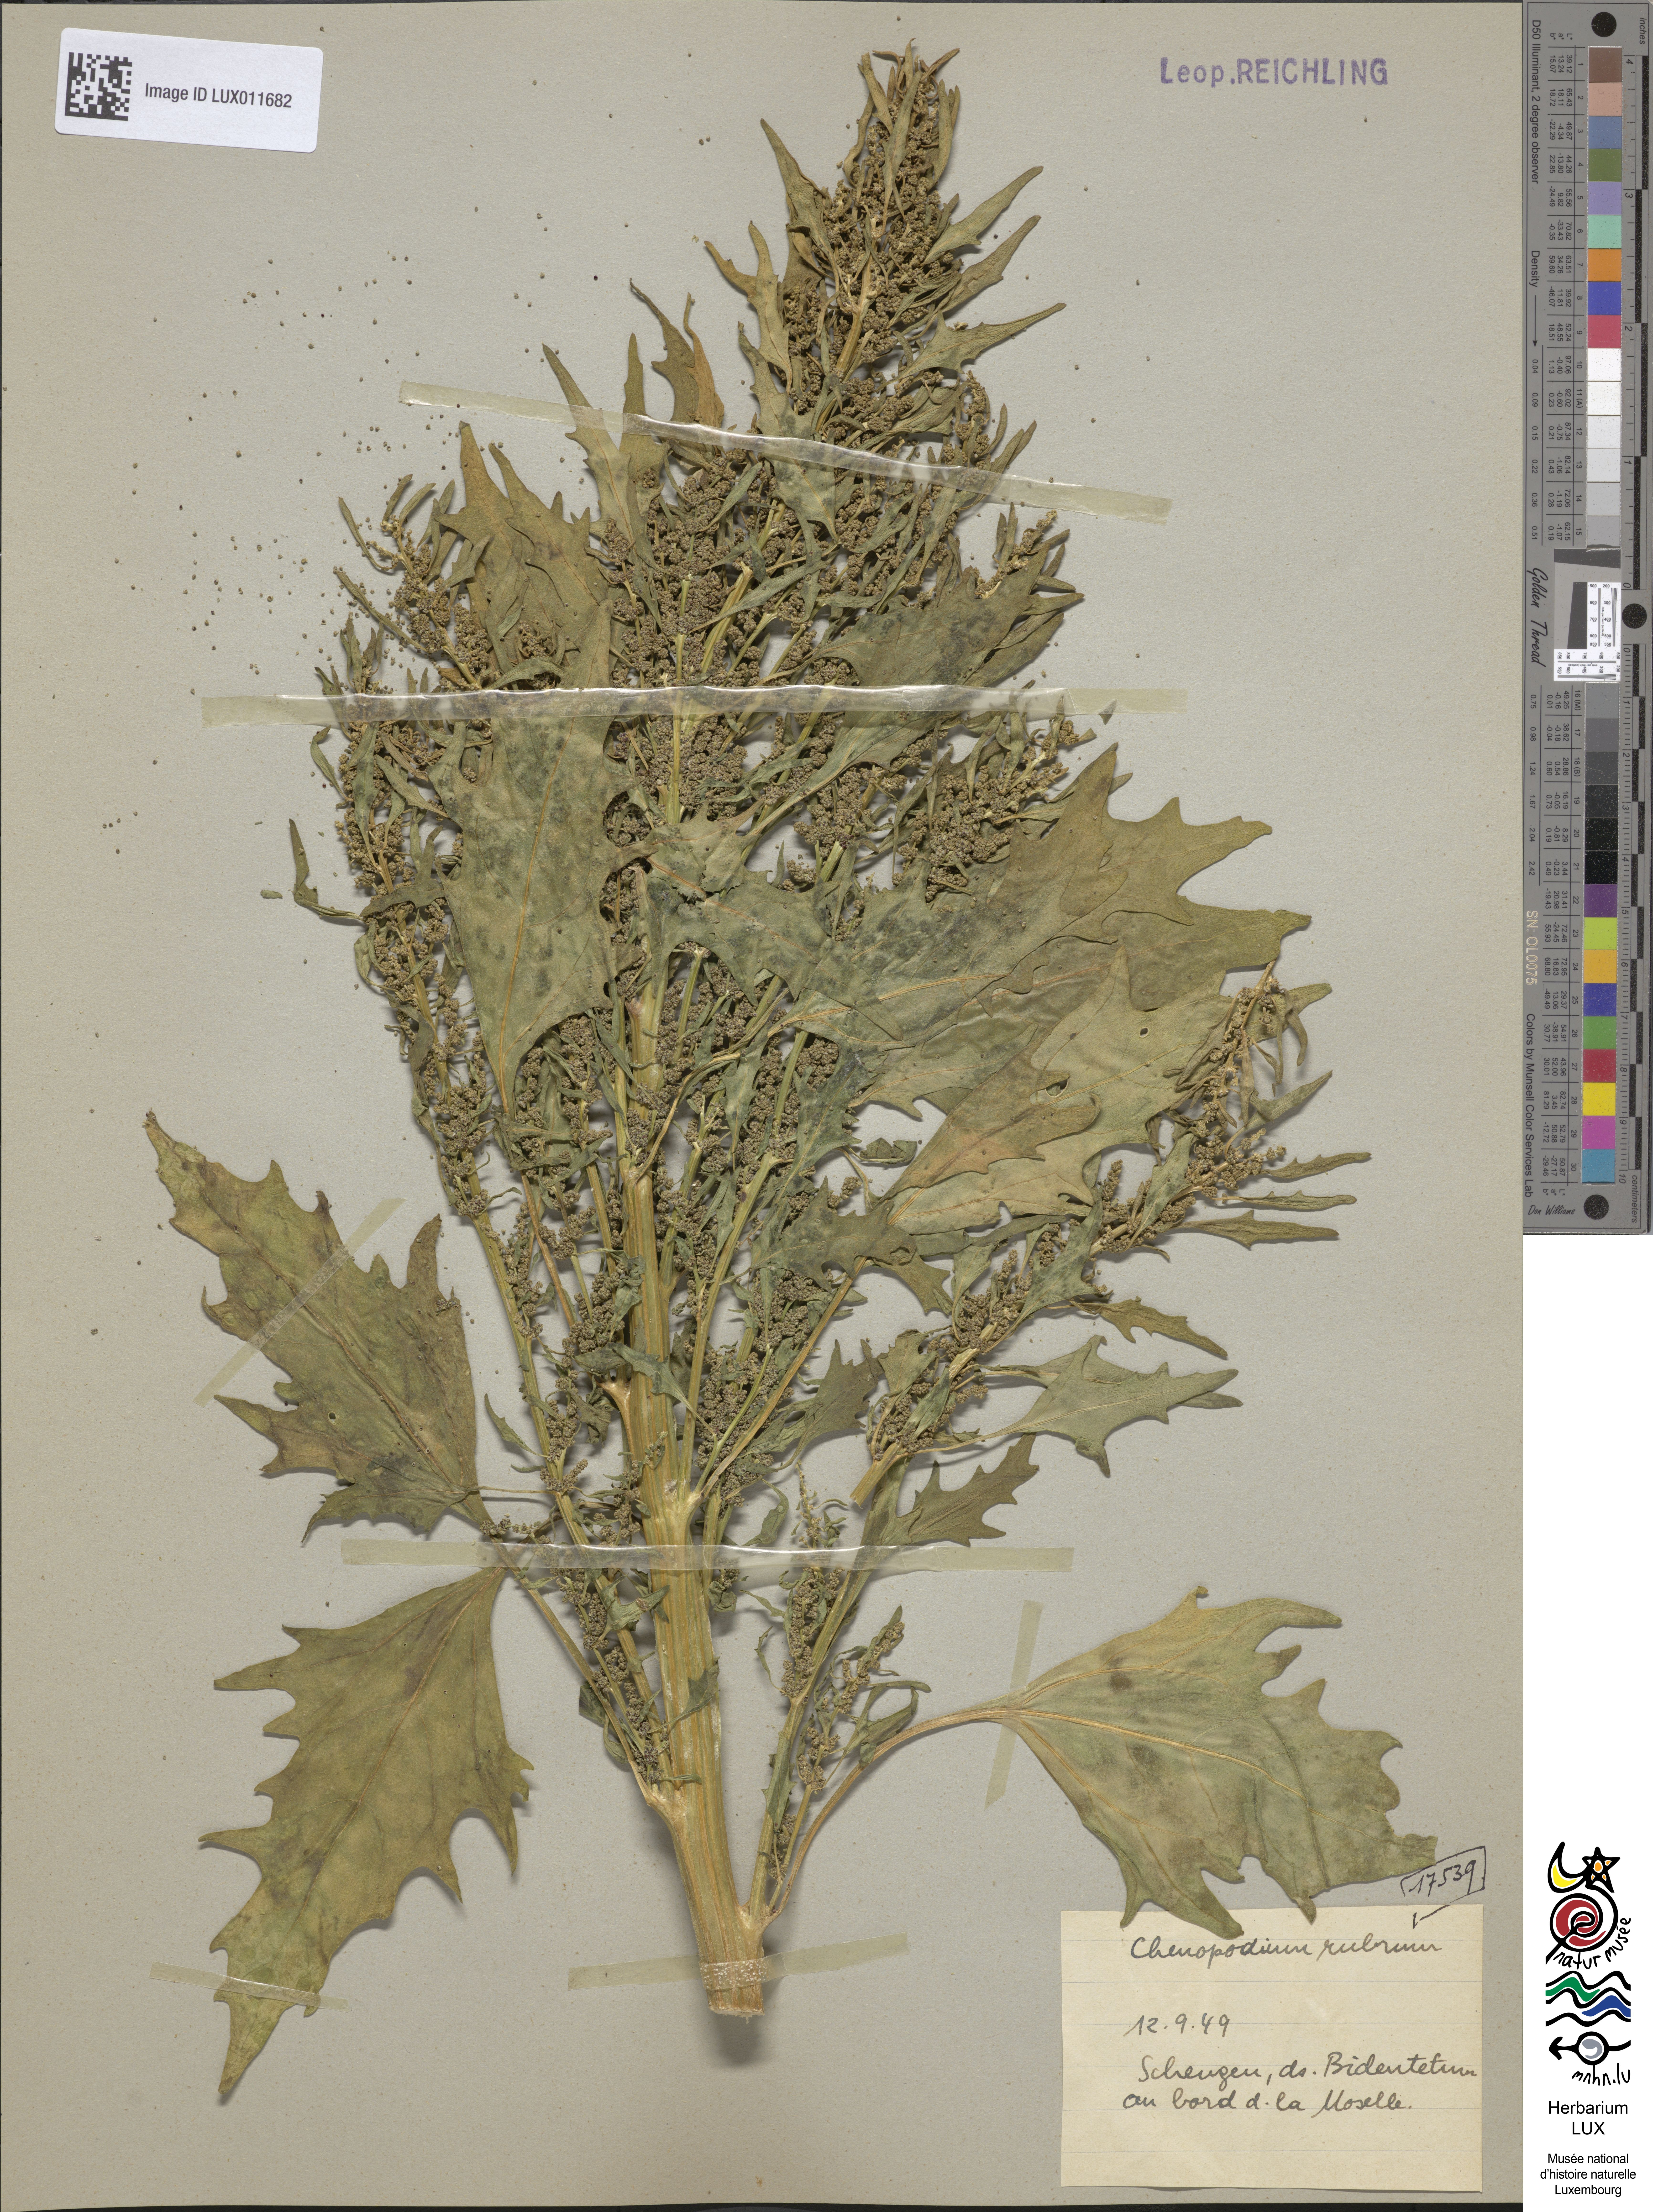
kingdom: Plantae
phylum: Tracheophyta
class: Magnoliopsida
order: Caryophyllales
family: Amaranthaceae
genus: Oxybasis
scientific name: Oxybasis rubra
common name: Red goosefoot
